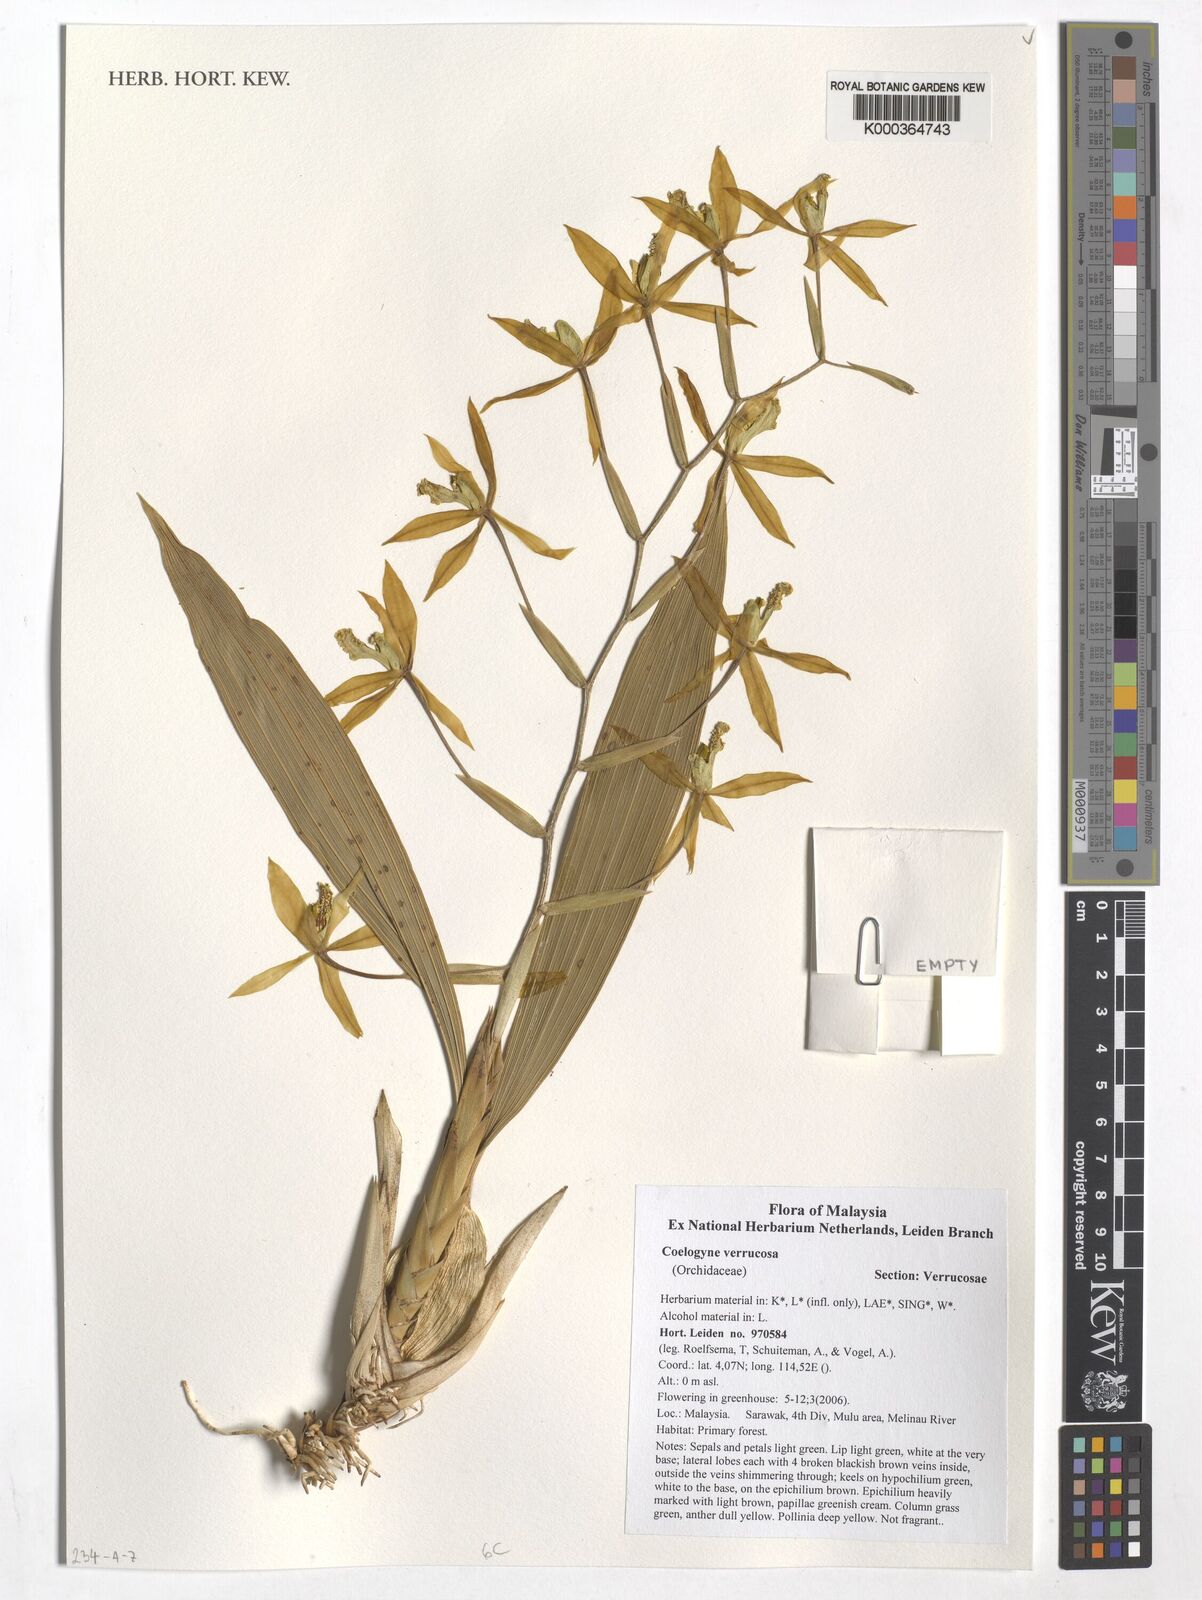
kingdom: Plantae
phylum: Tracheophyta
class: Liliopsida
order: Asparagales
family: Orchidaceae
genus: Coelogyne
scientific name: Coelogyne
